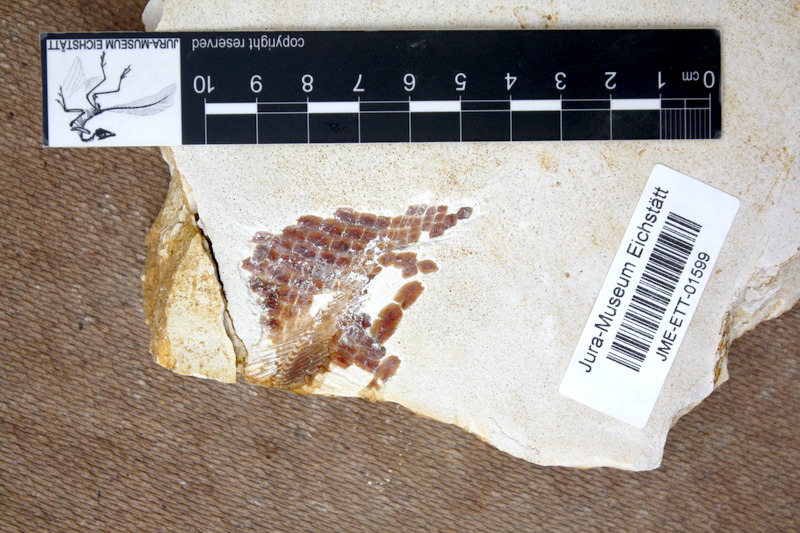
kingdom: Animalia
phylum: Chordata
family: Aspidorhynchidae
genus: Aspidorhynchus
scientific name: Aspidorhynchus sanzenbacheri
